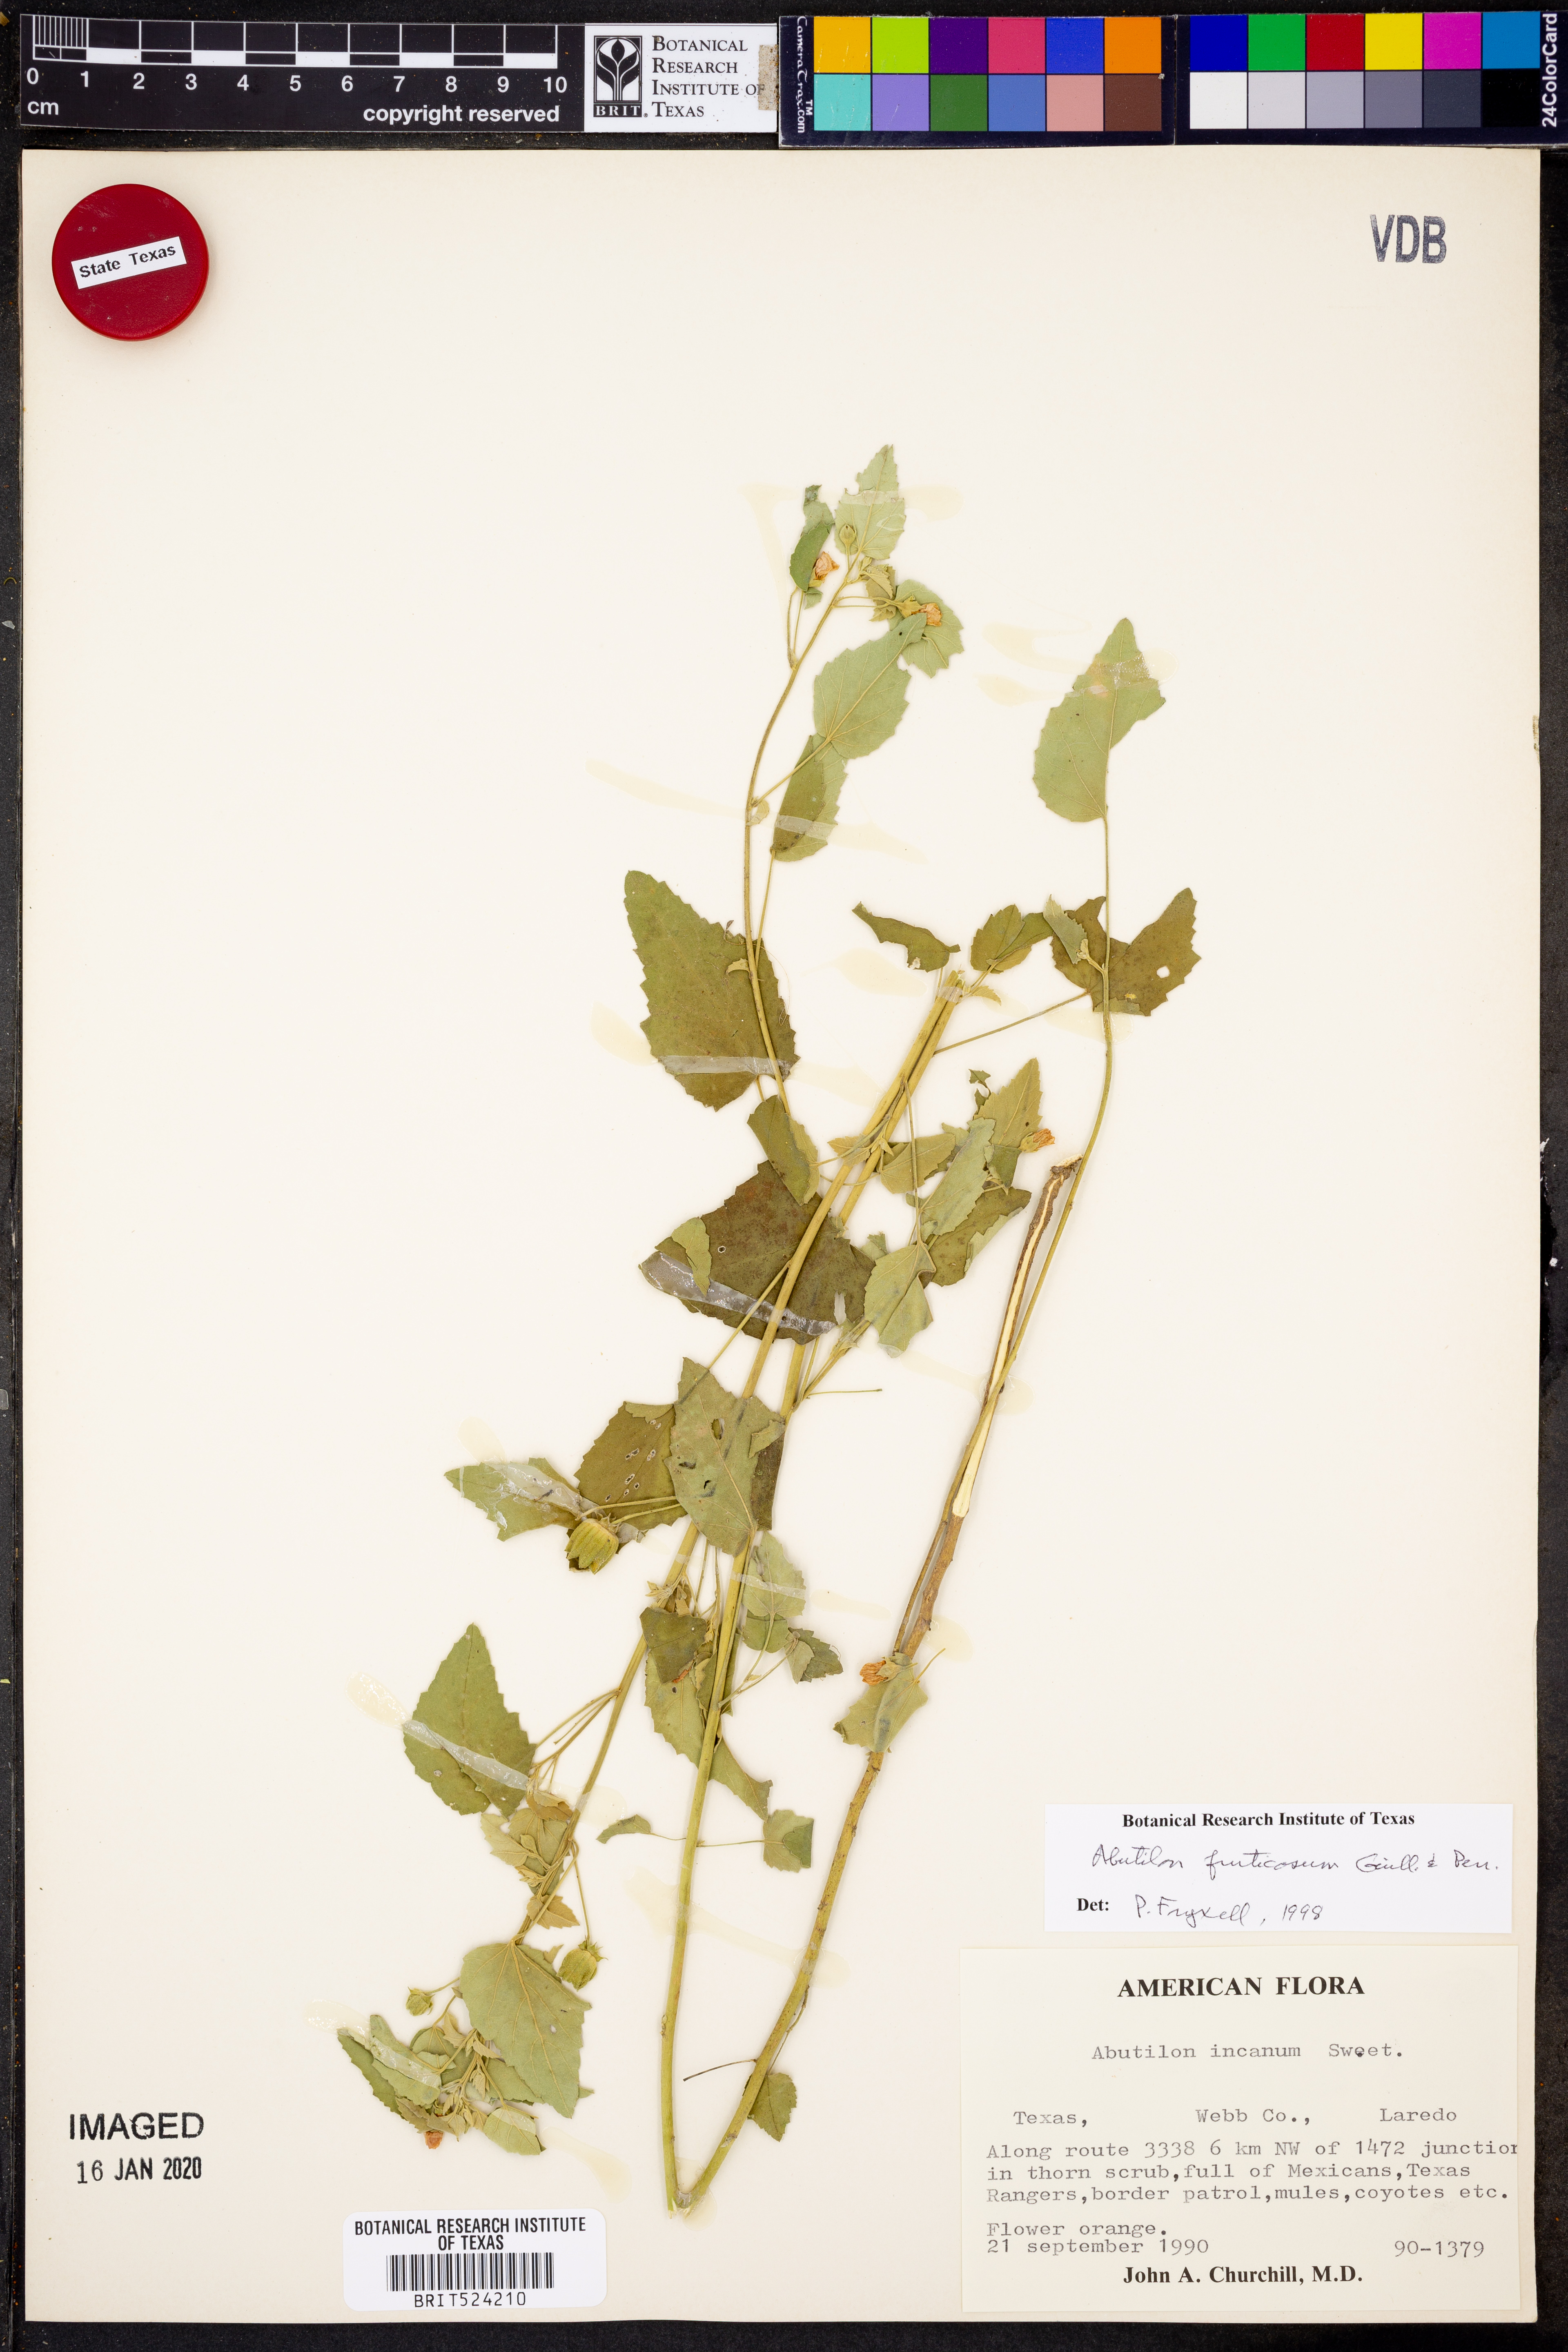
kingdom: Plantae
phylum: Tracheophyta
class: Magnoliopsida
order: Malvales
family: Malvaceae
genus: Abutilon
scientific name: Abutilon fruticosum
